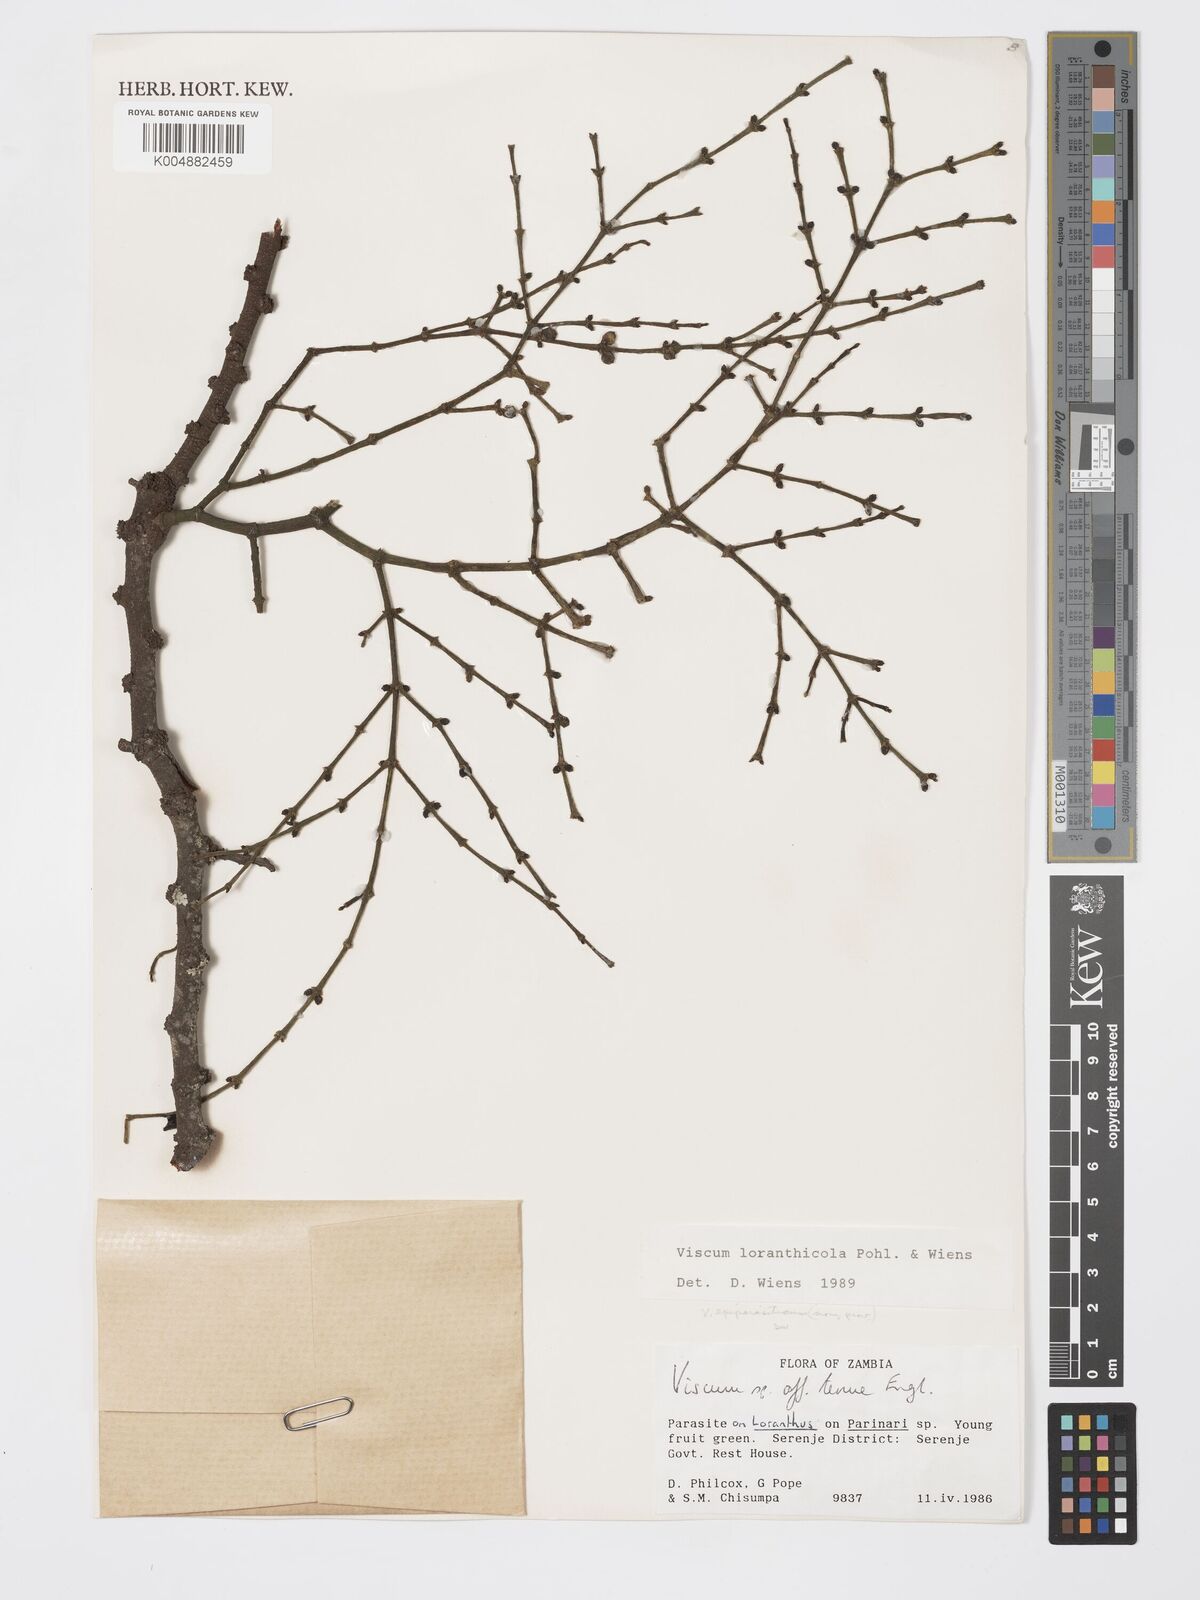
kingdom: Plantae
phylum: Tracheophyta
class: Magnoliopsida
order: Santalales
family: Viscaceae
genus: Viscum
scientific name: Viscum loranthicola
